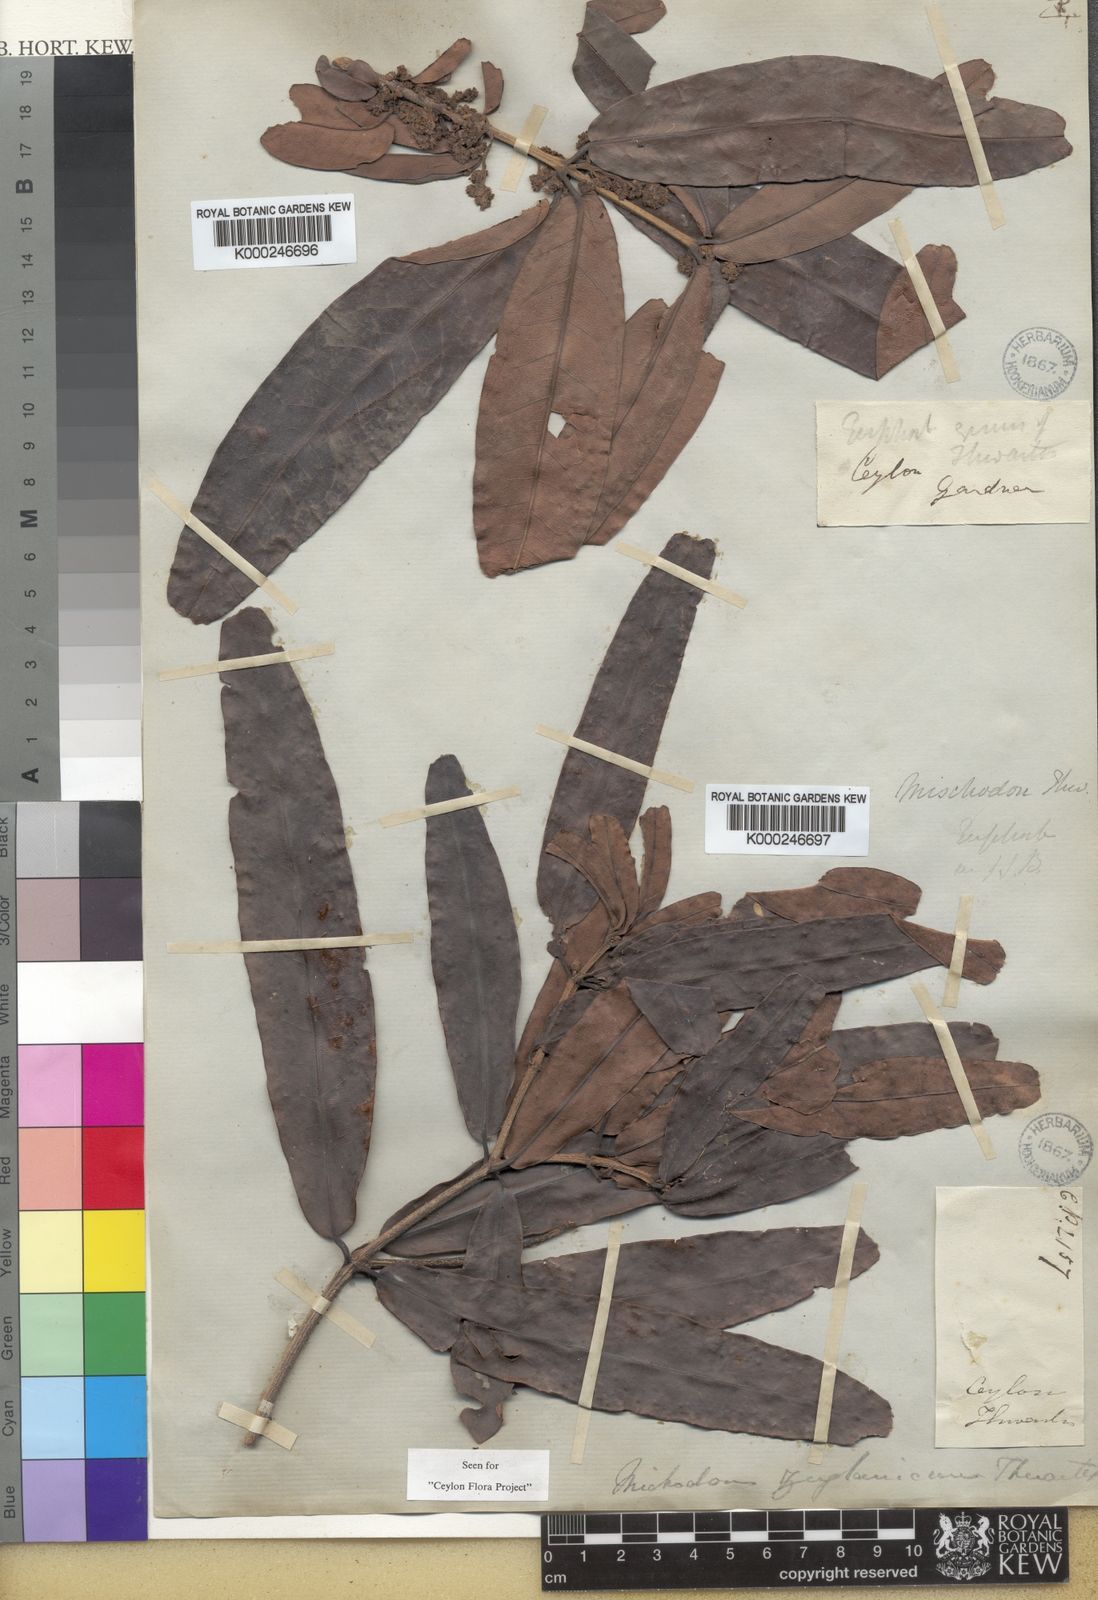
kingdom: Plantae
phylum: Tracheophyta
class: Magnoliopsida
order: Malpighiales
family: Picrodendraceae
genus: Mischodon
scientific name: Mischodon zeylanicus
